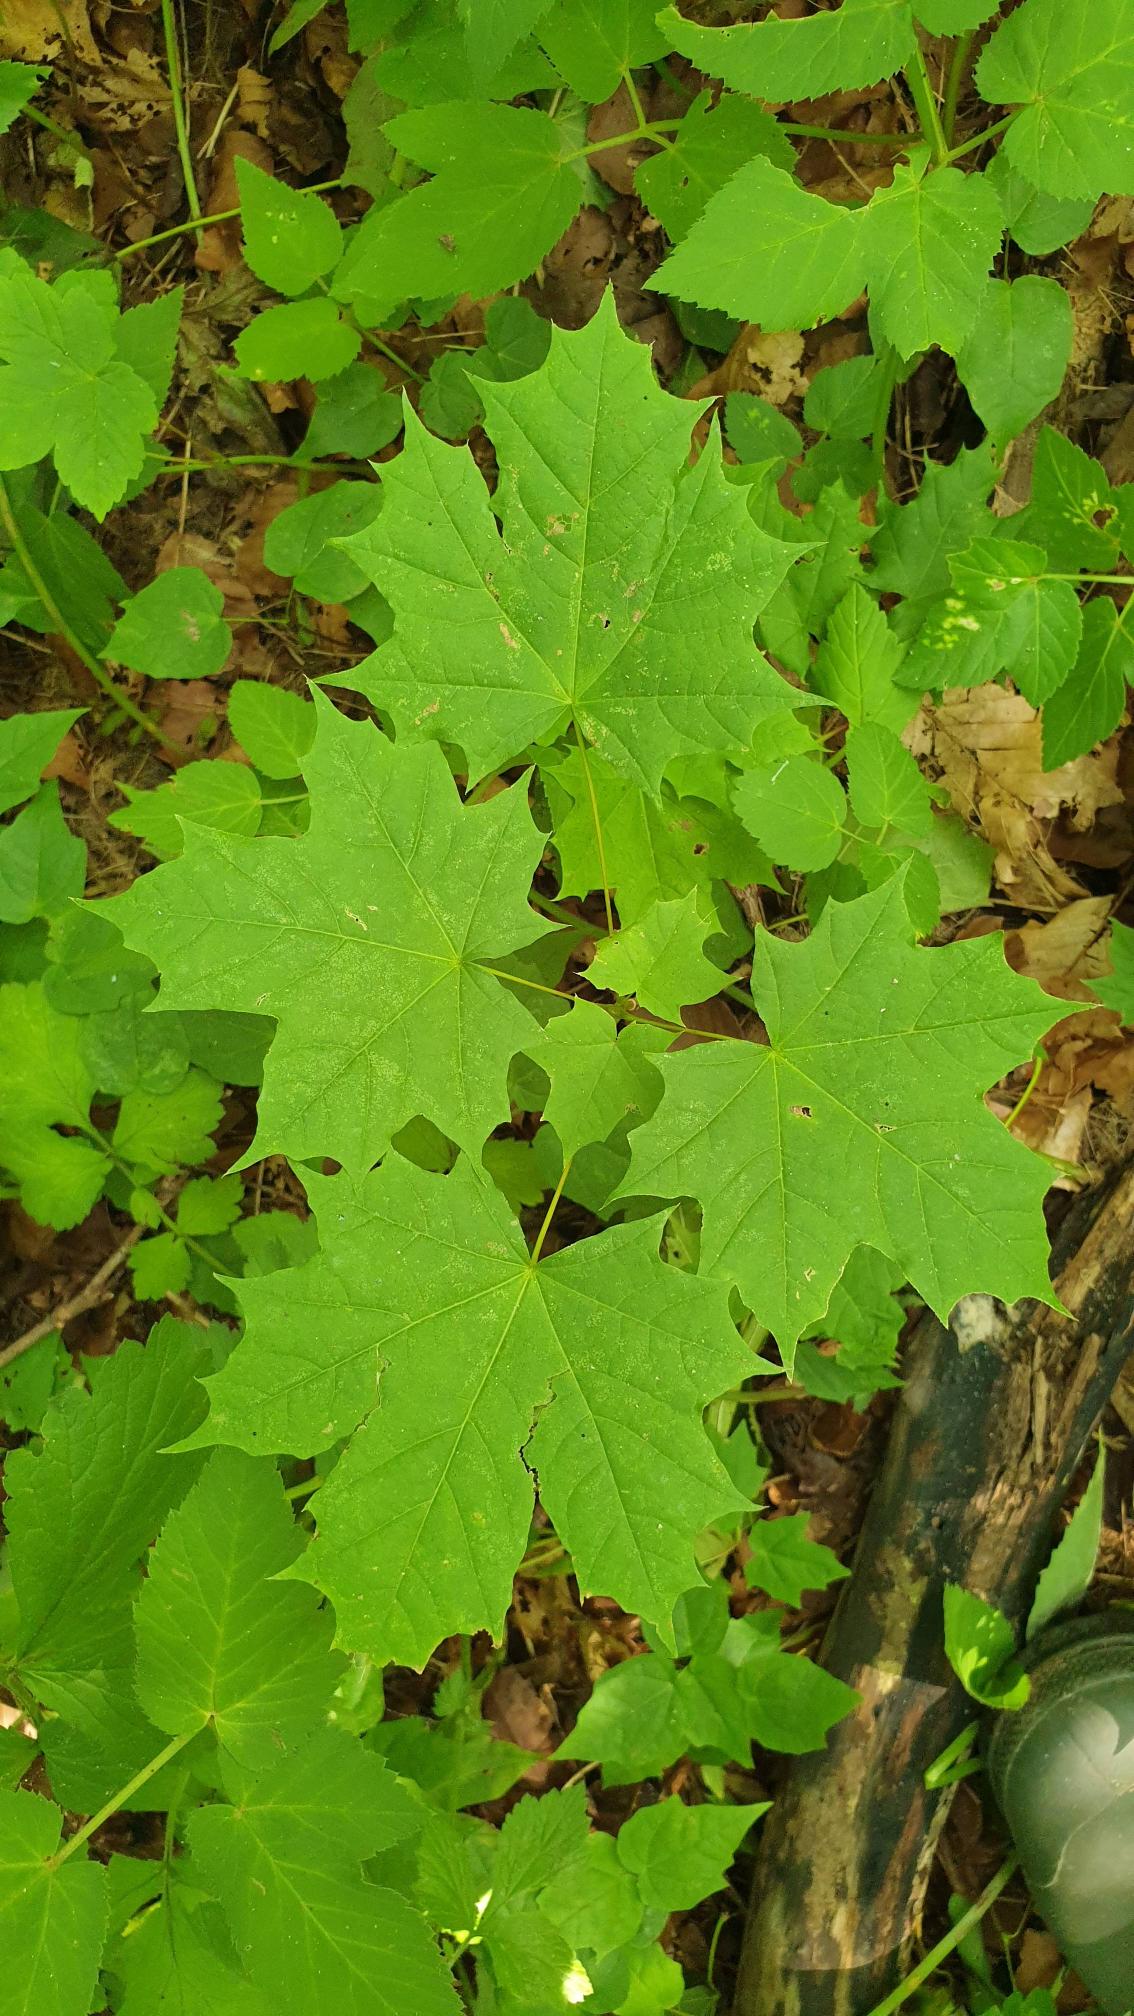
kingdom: Plantae
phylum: Tracheophyta
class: Magnoliopsida
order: Sapindales
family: Sapindaceae
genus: Acer
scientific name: Acer platanoides
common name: Spids-løn
